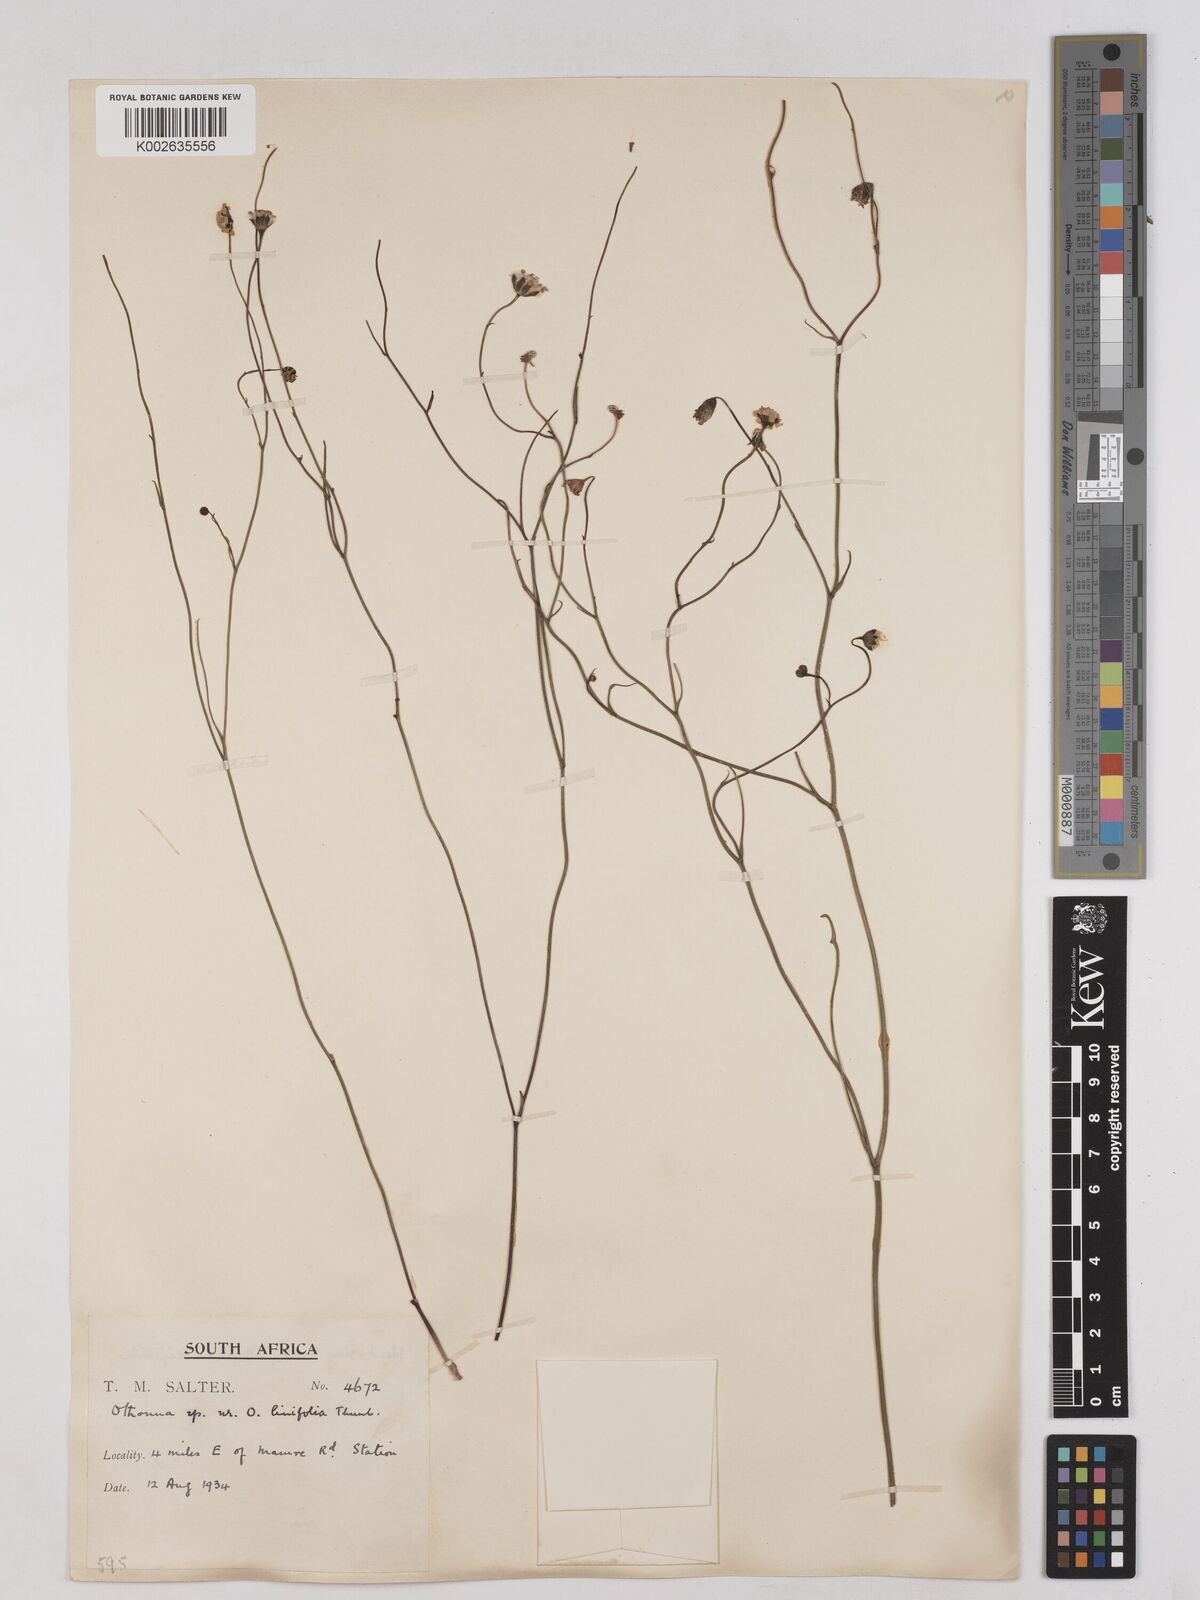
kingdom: Plantae
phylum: Tracheophyta
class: Magnoliopsida
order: Asterales
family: Asteraceae
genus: Othonna
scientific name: Othonna stenophylla
